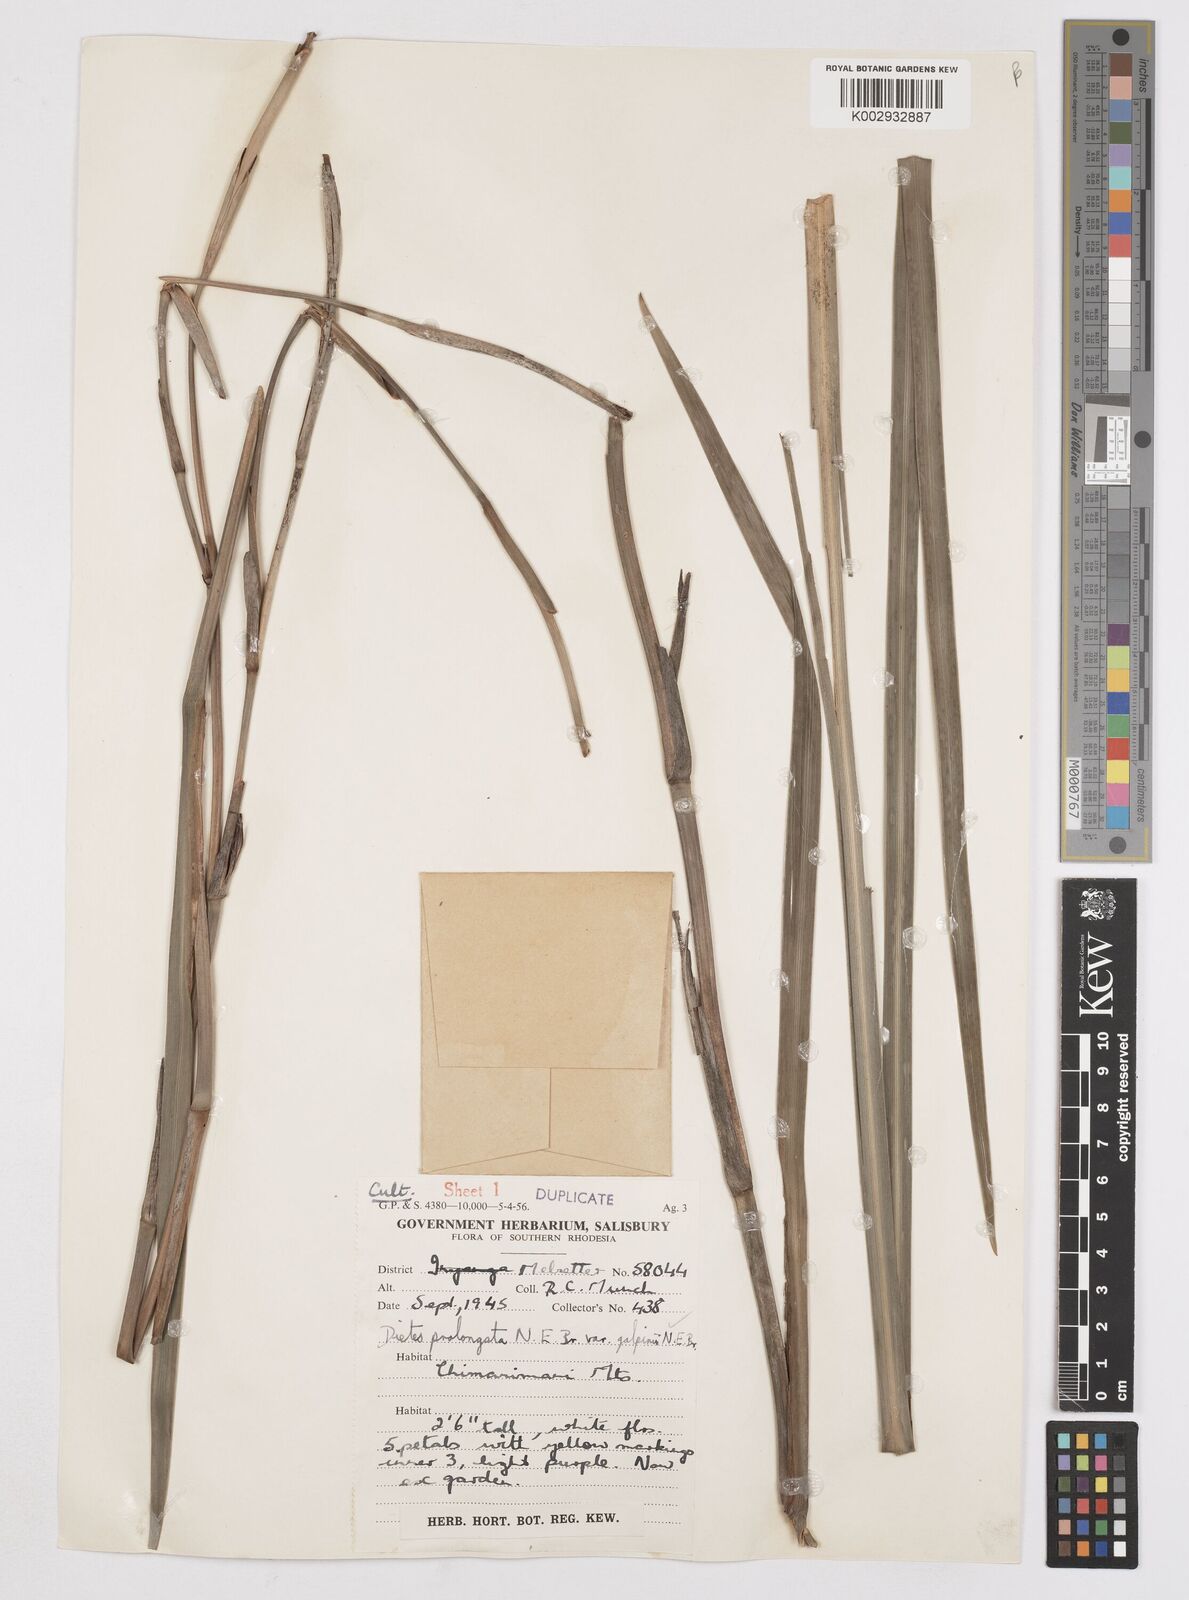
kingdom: Plantae
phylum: Tracheophyta
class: Liliopsida
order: Asparagales
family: Iridaceae
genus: Dietes
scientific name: Dietes iridioides
